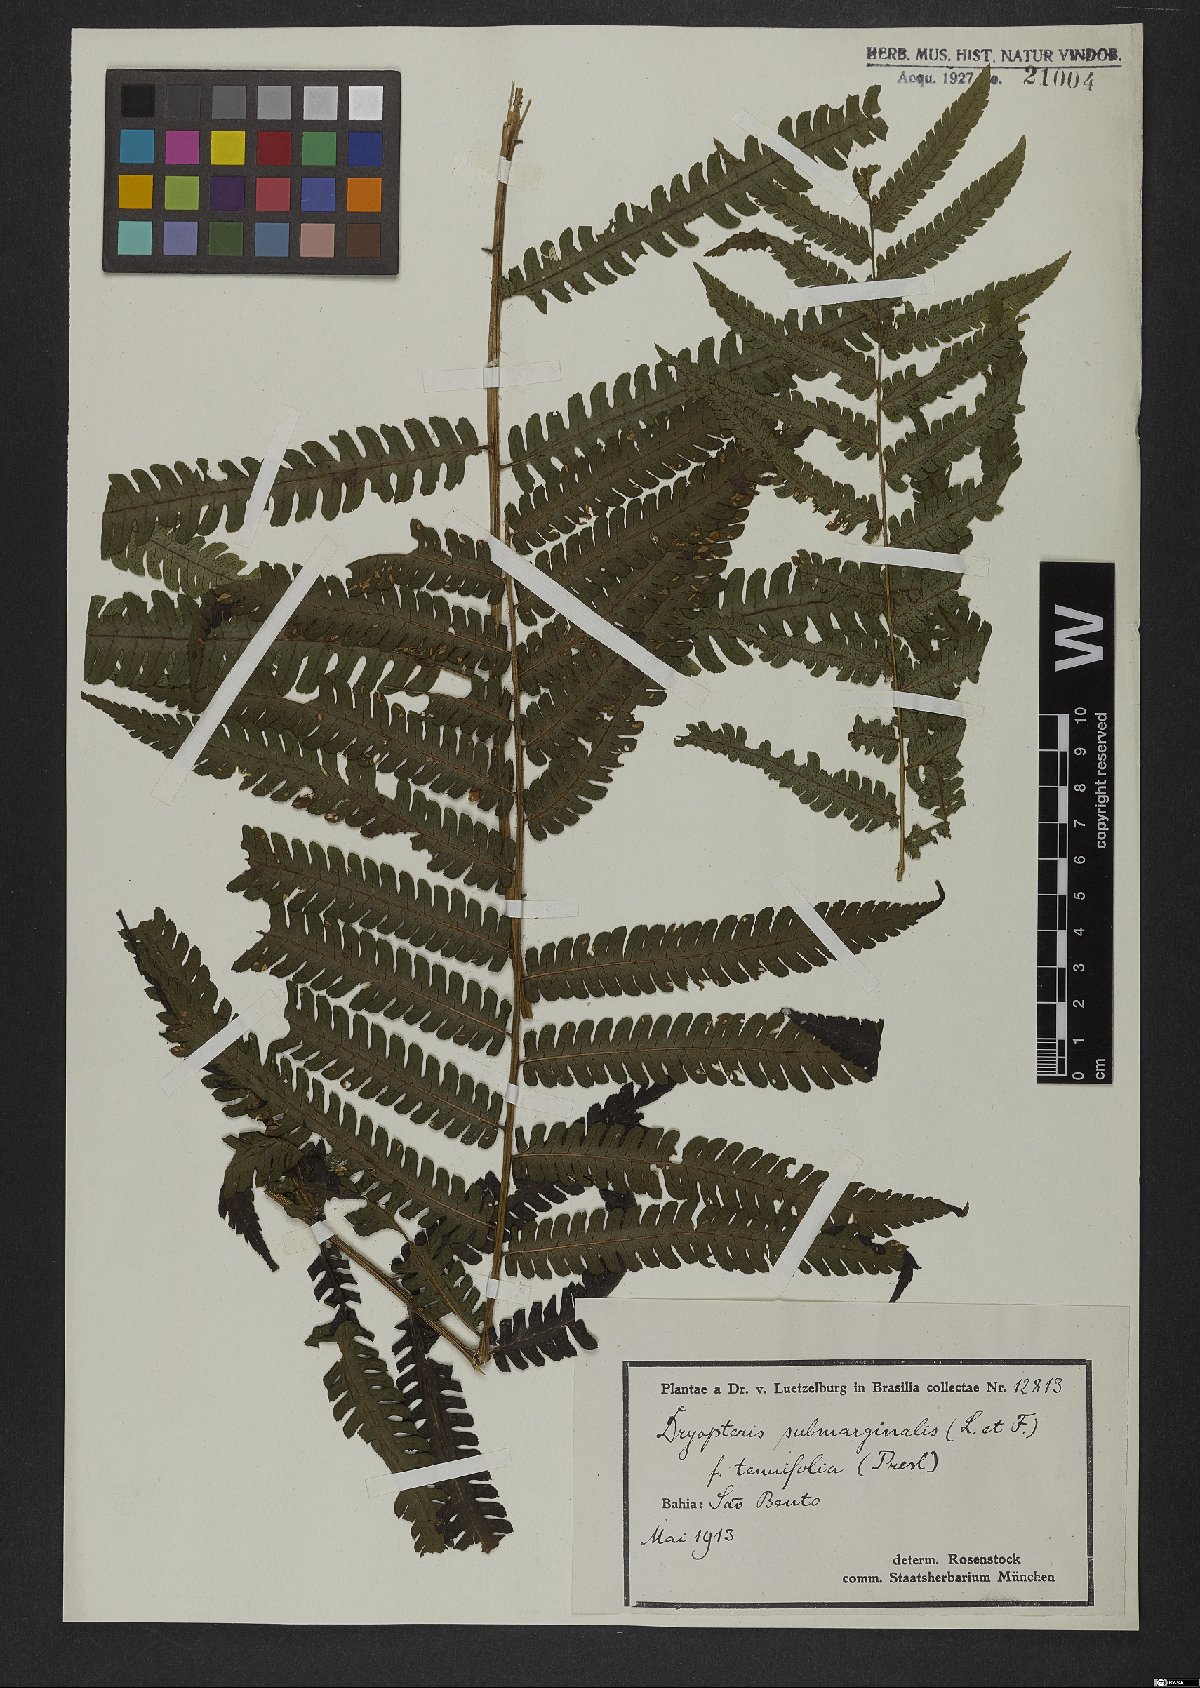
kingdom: Plantae
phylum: Tracheophyta
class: Polypodiopsida
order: Polypodiales
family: Dryopteridaceae
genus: Ctenitis
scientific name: Ctenitis submarginalis
